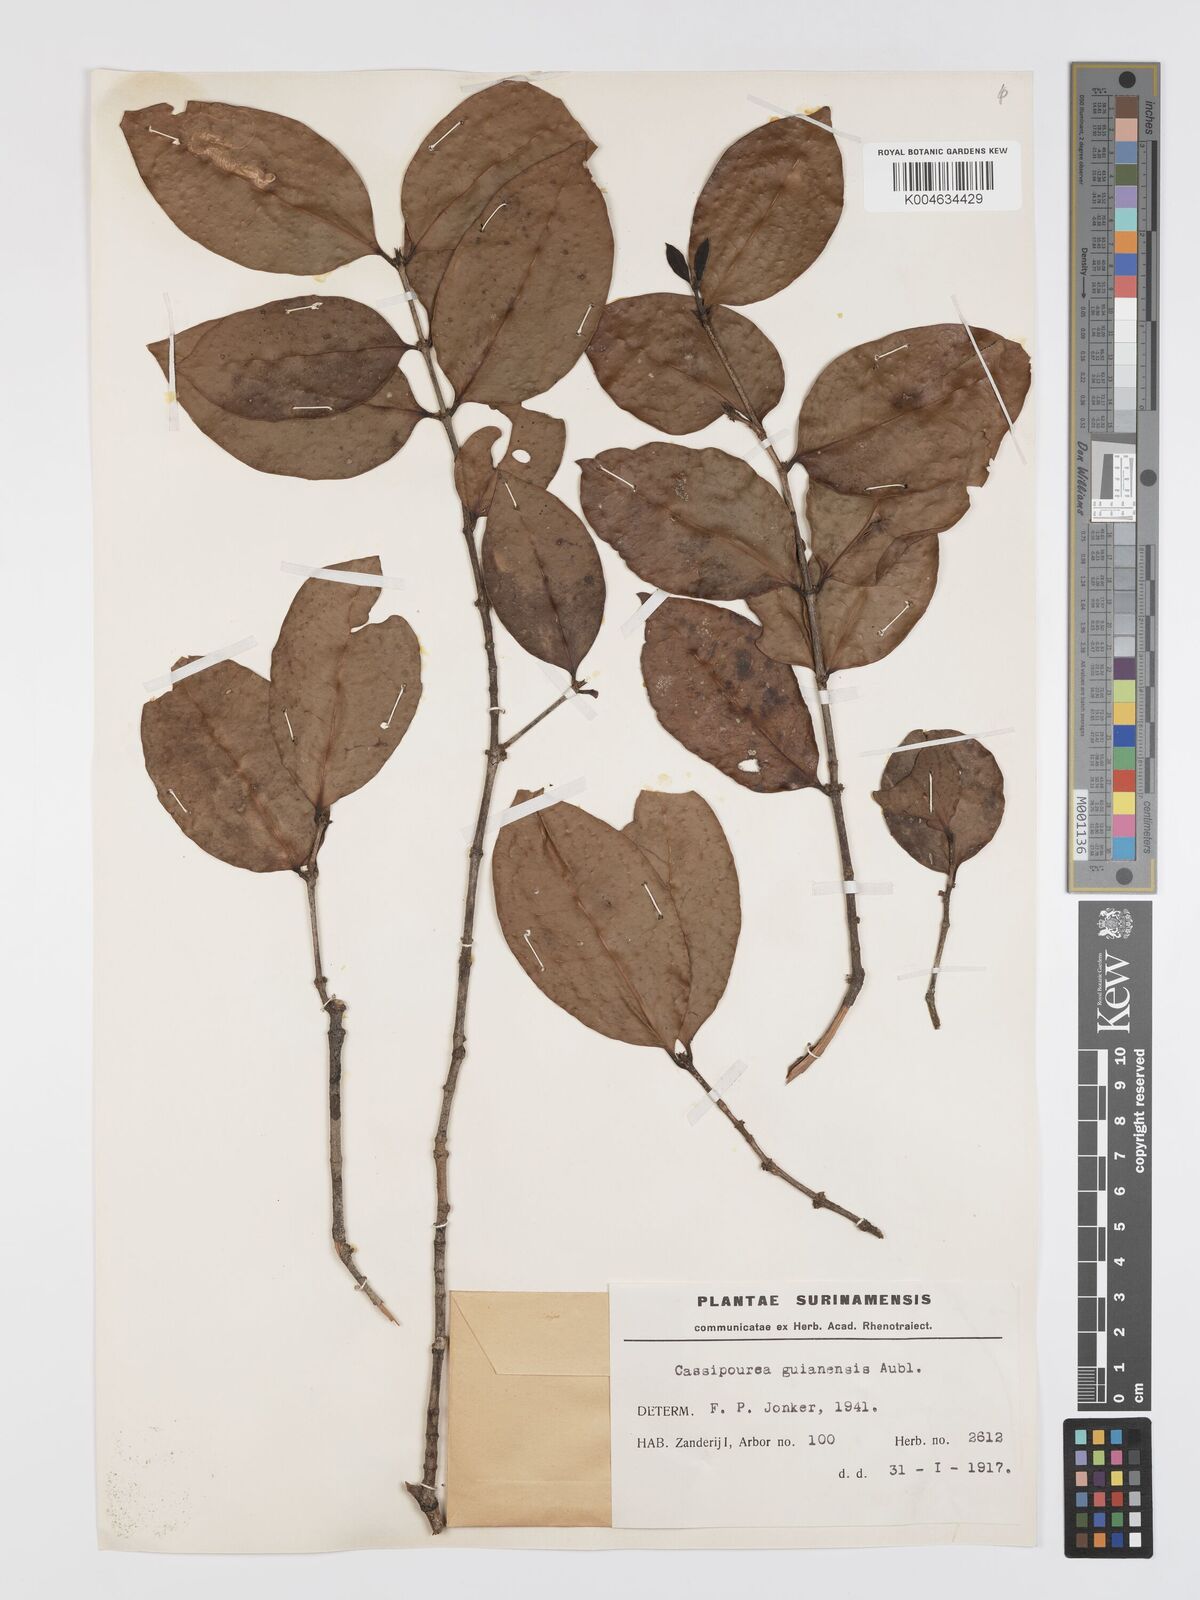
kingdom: Plantae
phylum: Tracheophyta
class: Magnoliopsida
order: Malpighiales
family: Rhizophoraceae
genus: Cassipourea
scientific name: Cassipourea guianensis
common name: Bastard waterwood
